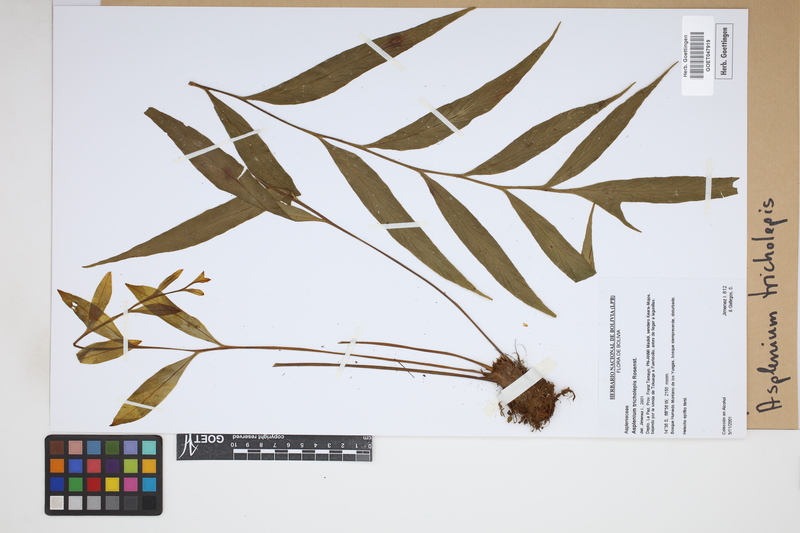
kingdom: Plantae
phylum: Tracheophyta
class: Polypodiopsida
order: Polypodiales
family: Aspleniaceae
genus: Asplenium
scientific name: Asplenium tricholepis
